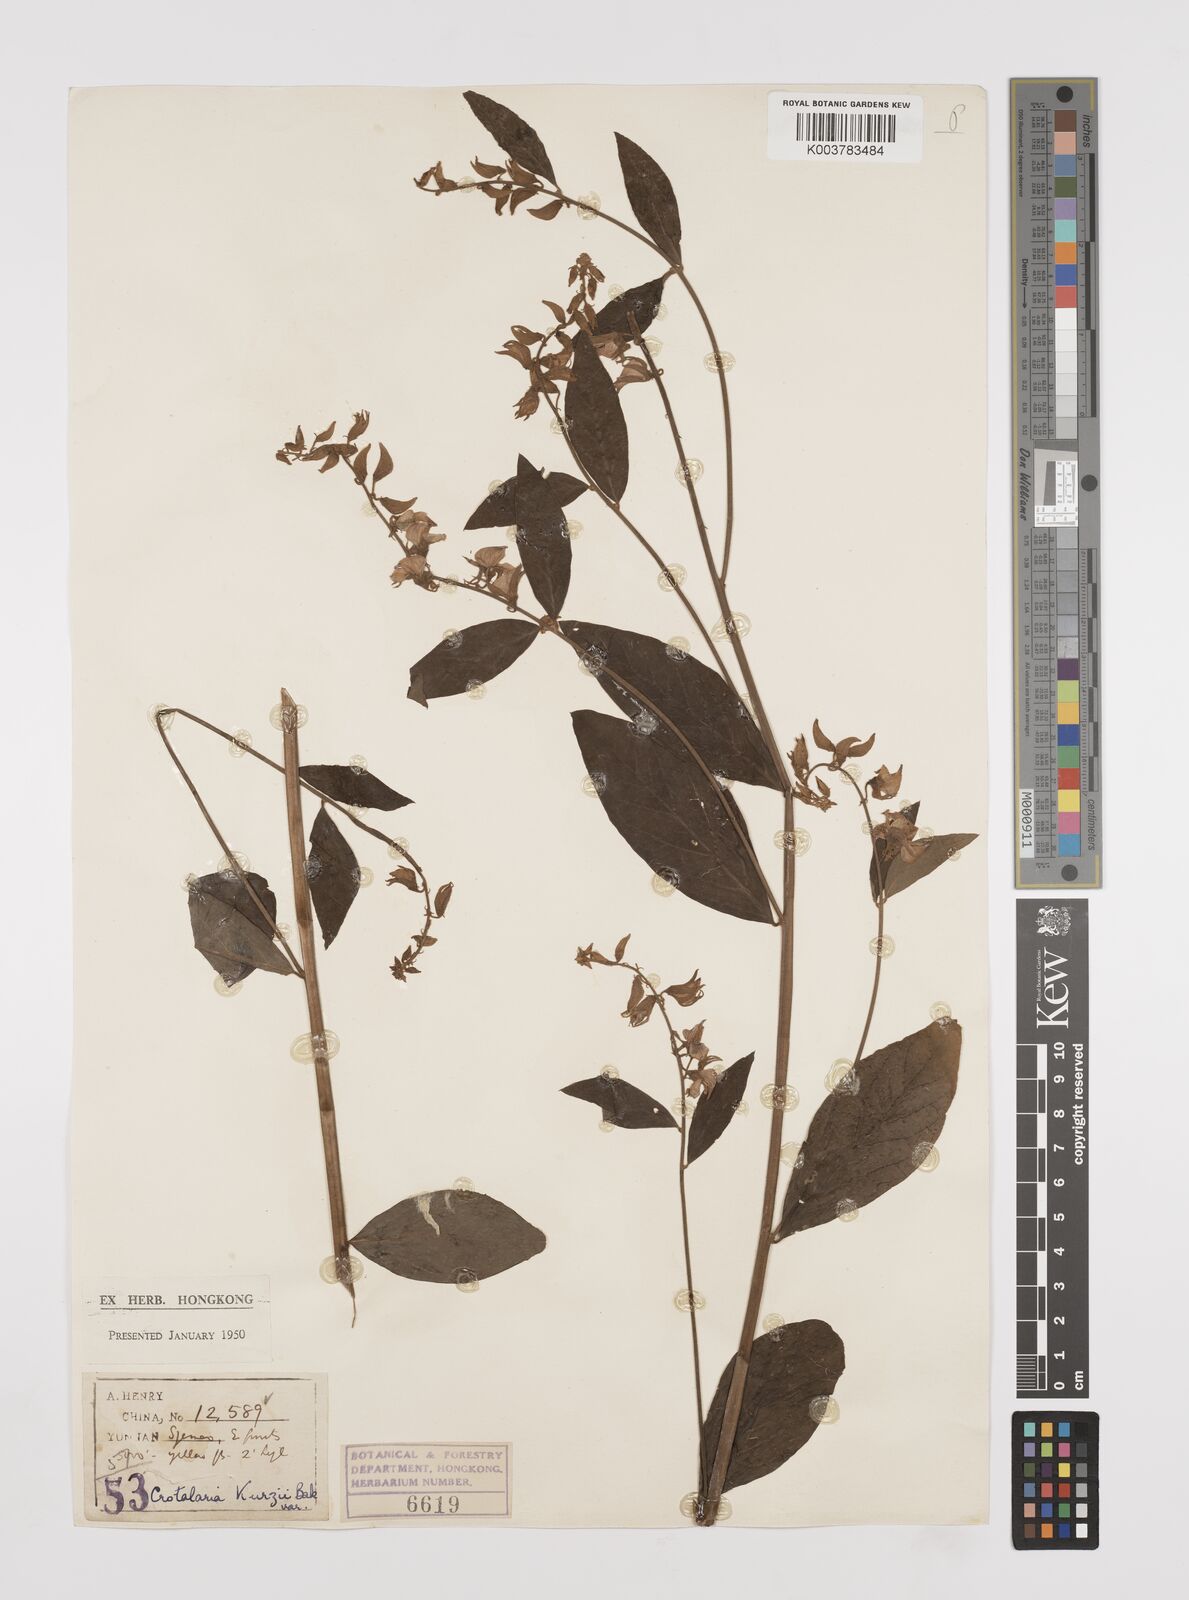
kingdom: Plantae
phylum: Tracheophyta
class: Magnoliopsida
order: Fabales
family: Fabaceae
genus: Crotalaria
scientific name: Crotalaria kurzii
